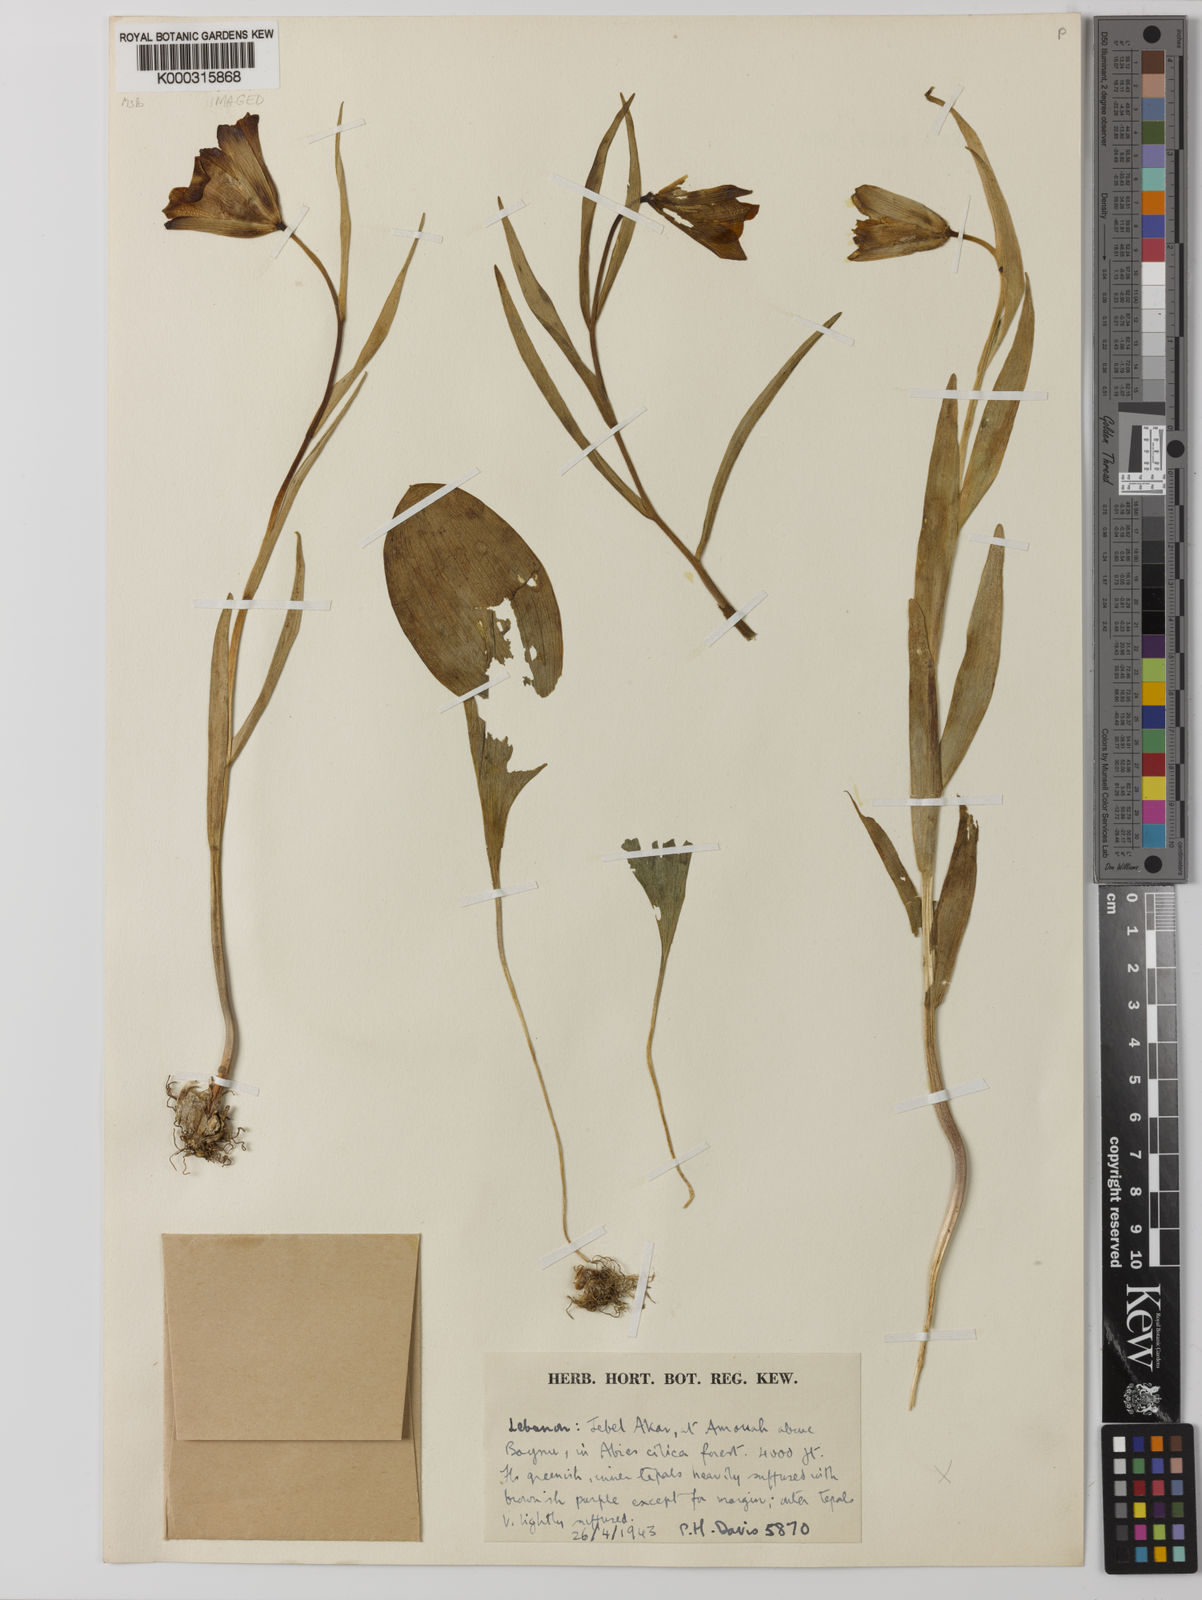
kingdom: Plantae
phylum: Tracheophyta
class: Liliopsida
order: Liliales
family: Liliaceae
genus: Fritillaria
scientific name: Fritillaria acmopetala
